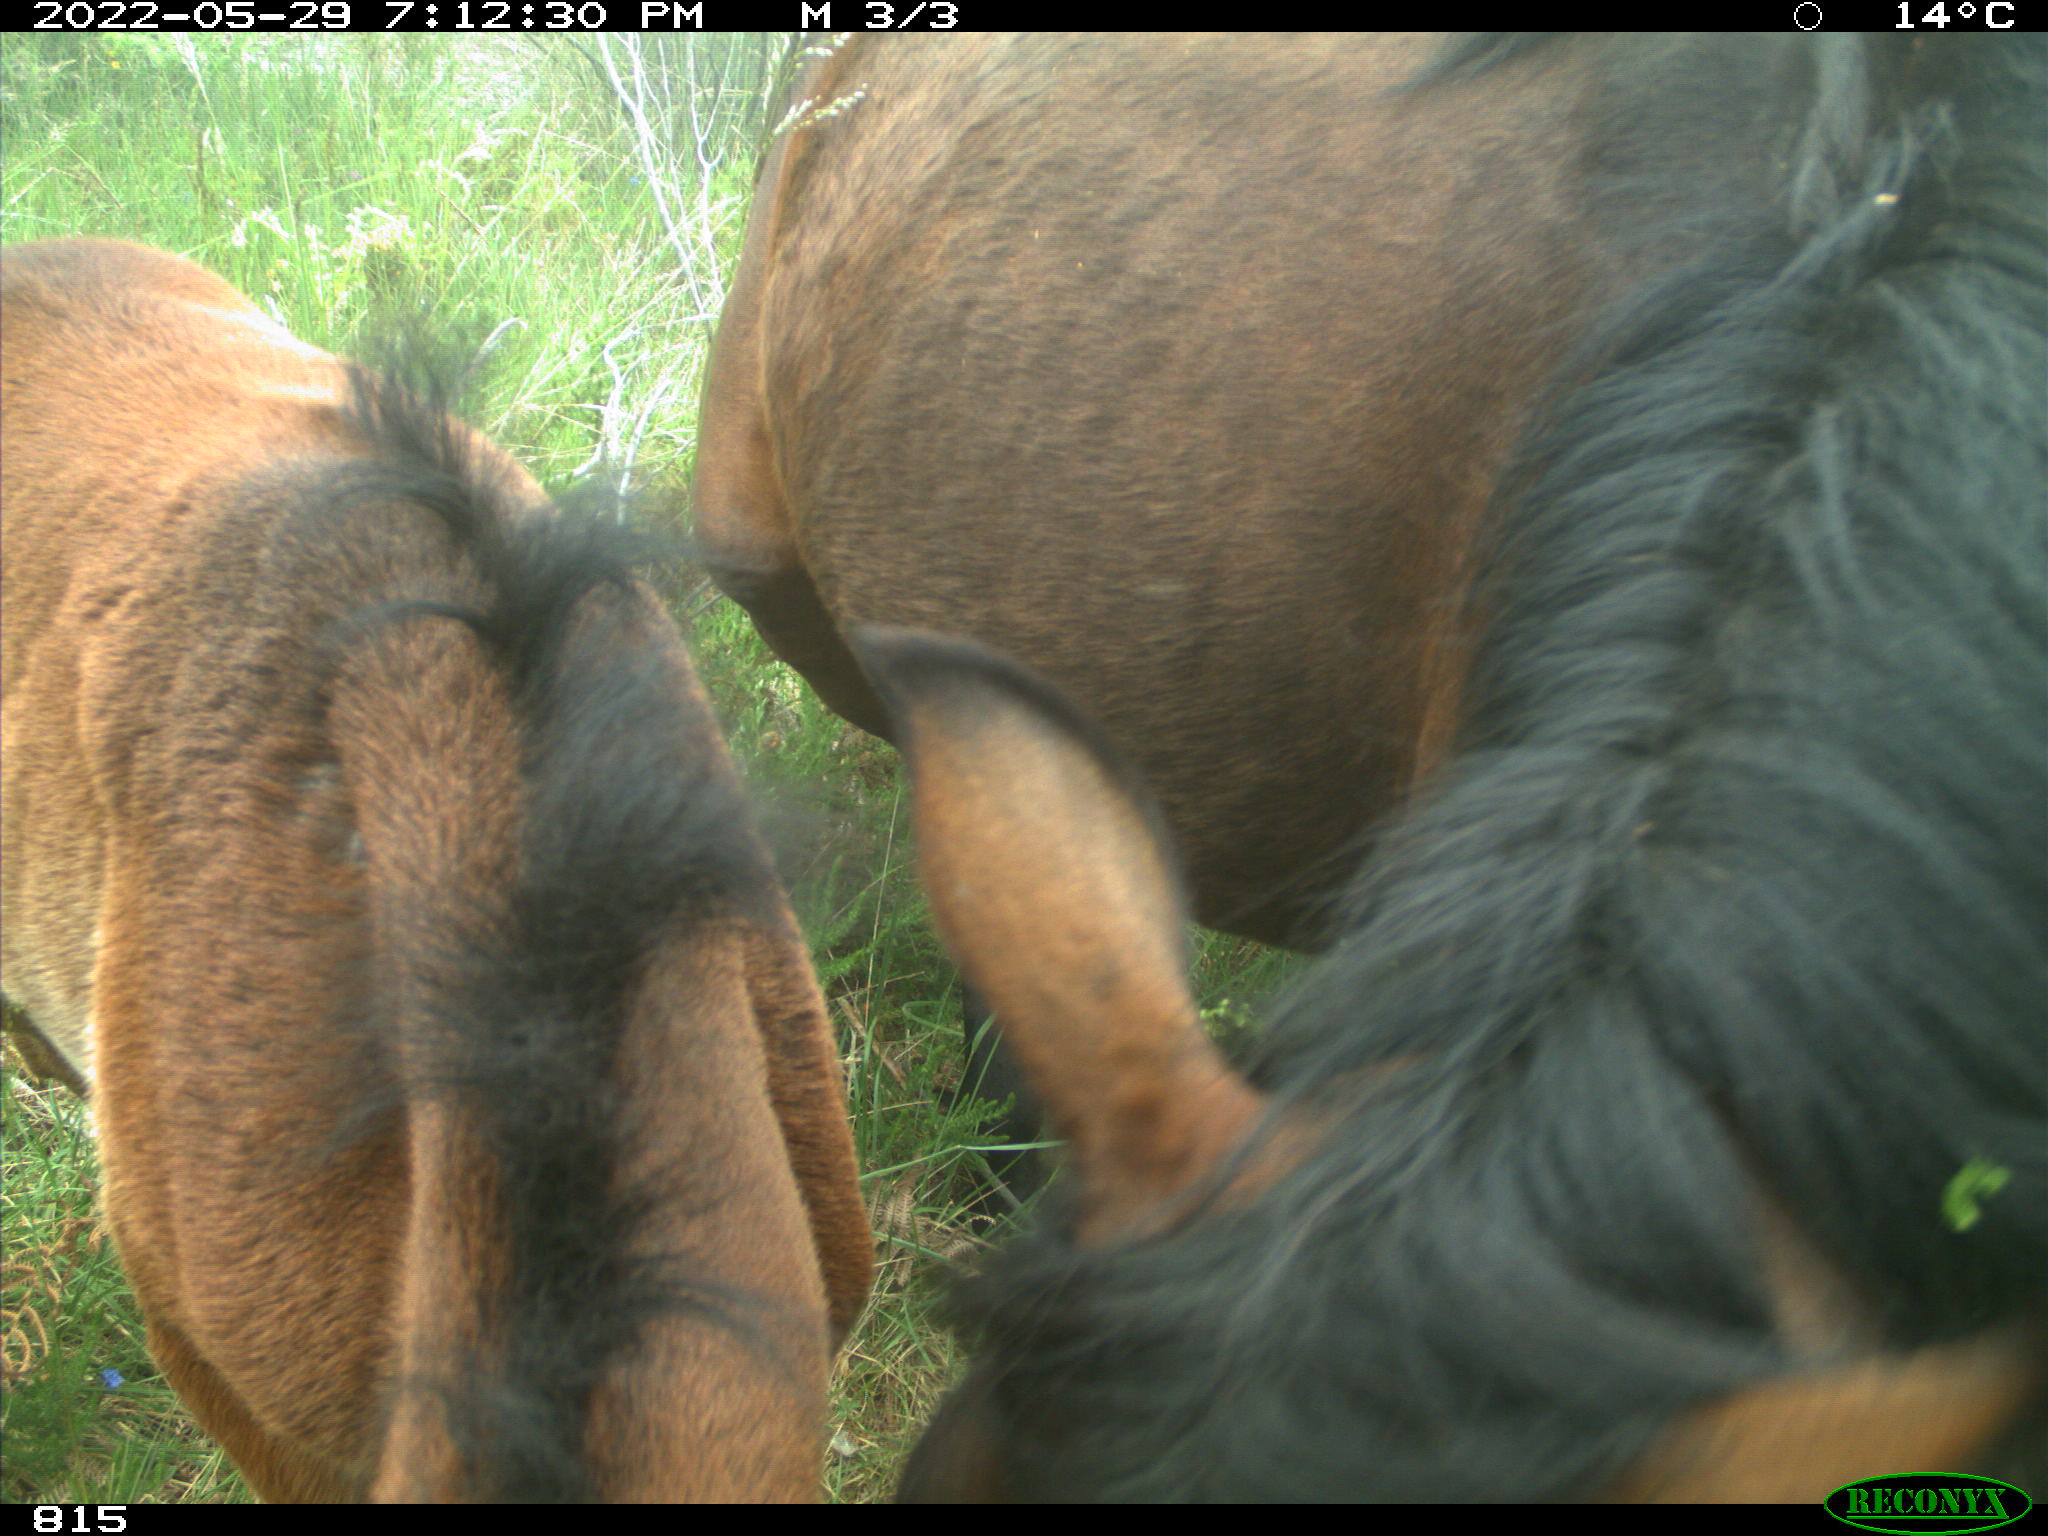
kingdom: Animalia
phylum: Chordata
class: Mammalia
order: Perissodactyla
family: Equidae
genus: Equus
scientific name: Equus caballus
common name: Horse
